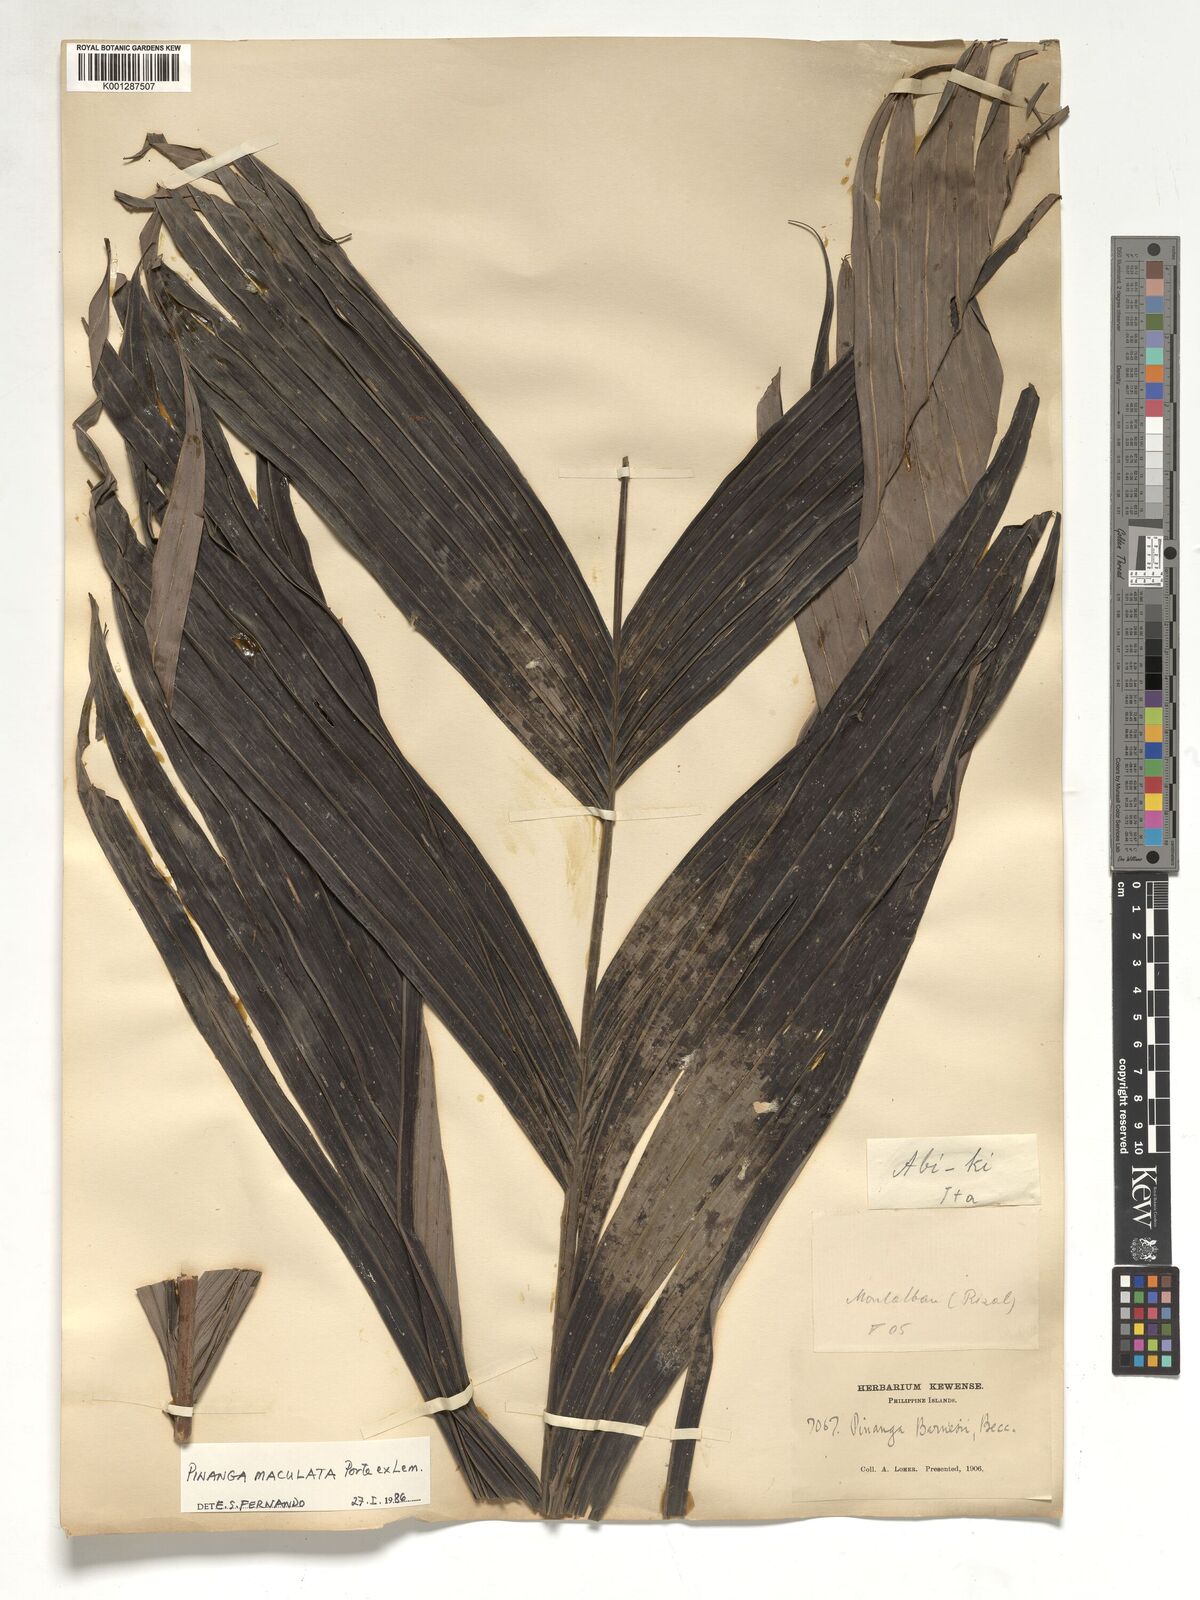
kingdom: Plantae
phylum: Tracheophyta
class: Liliopsida
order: Arecales
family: Arecaceae
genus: Pinanga
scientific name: Pinanga maculata
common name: Tiger palm
